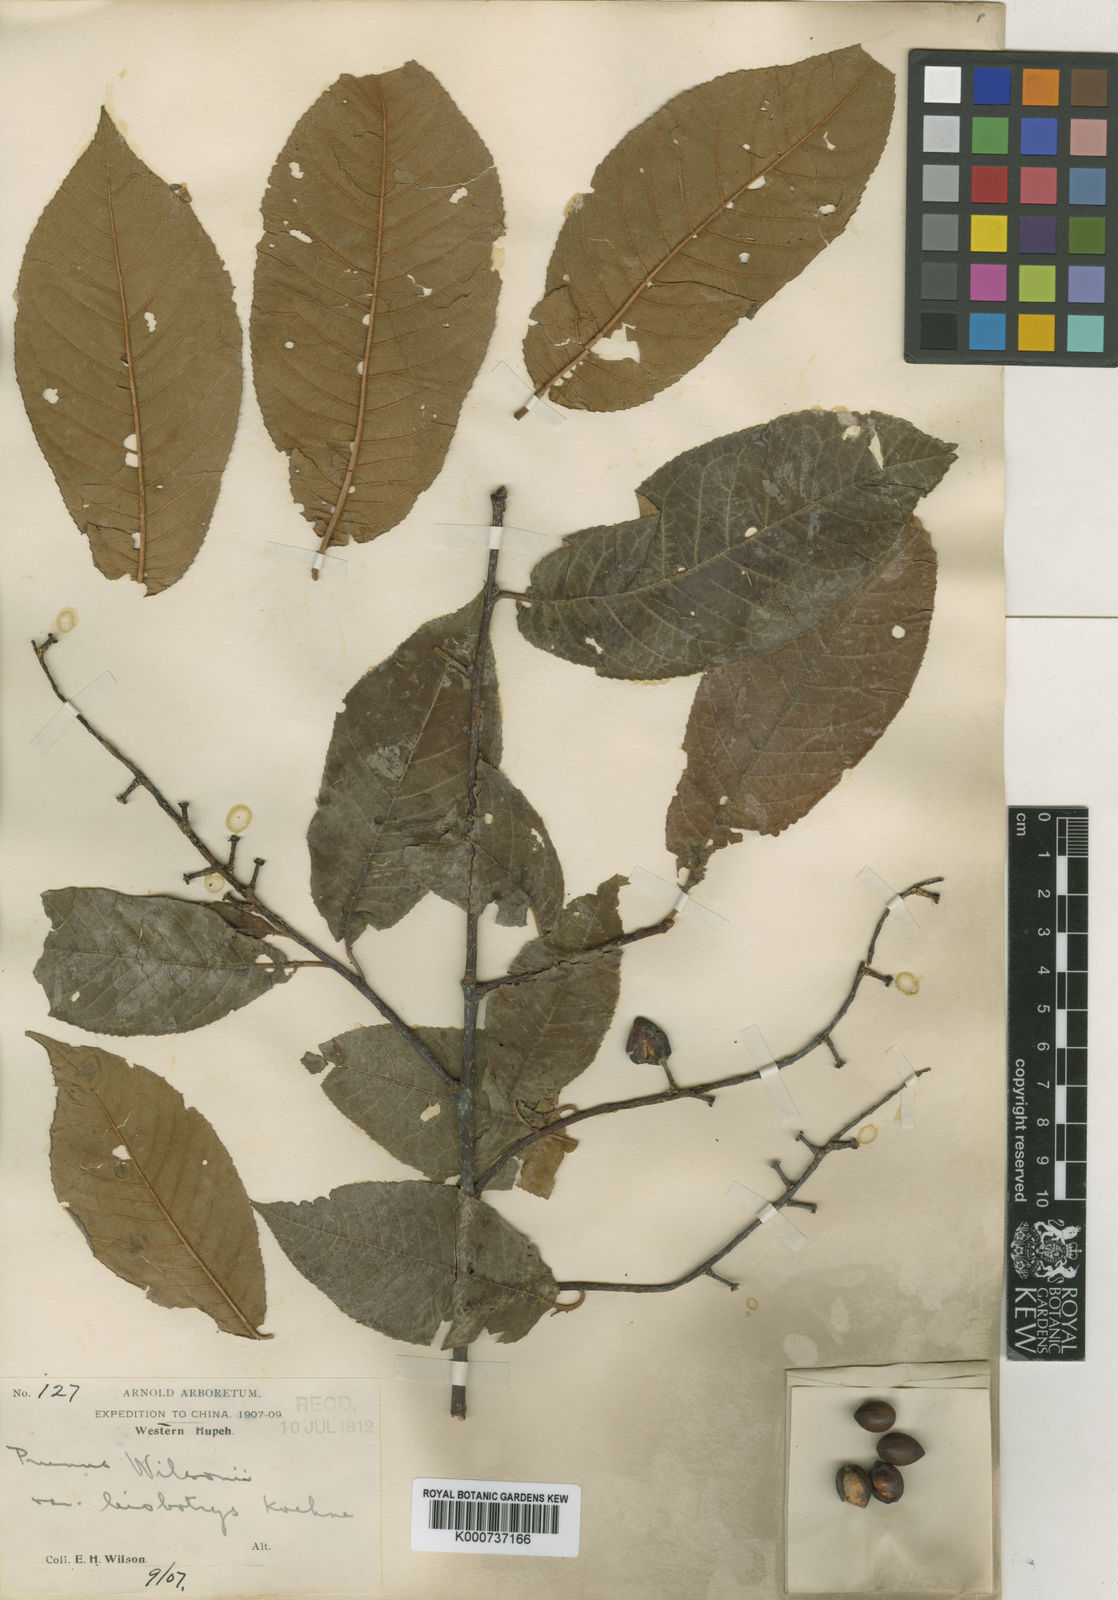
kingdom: Plantae
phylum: Tracheophyta
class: Magnoliopsida
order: Rosales
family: Rosaceae
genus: Prunus
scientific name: Prunus wilsonii
